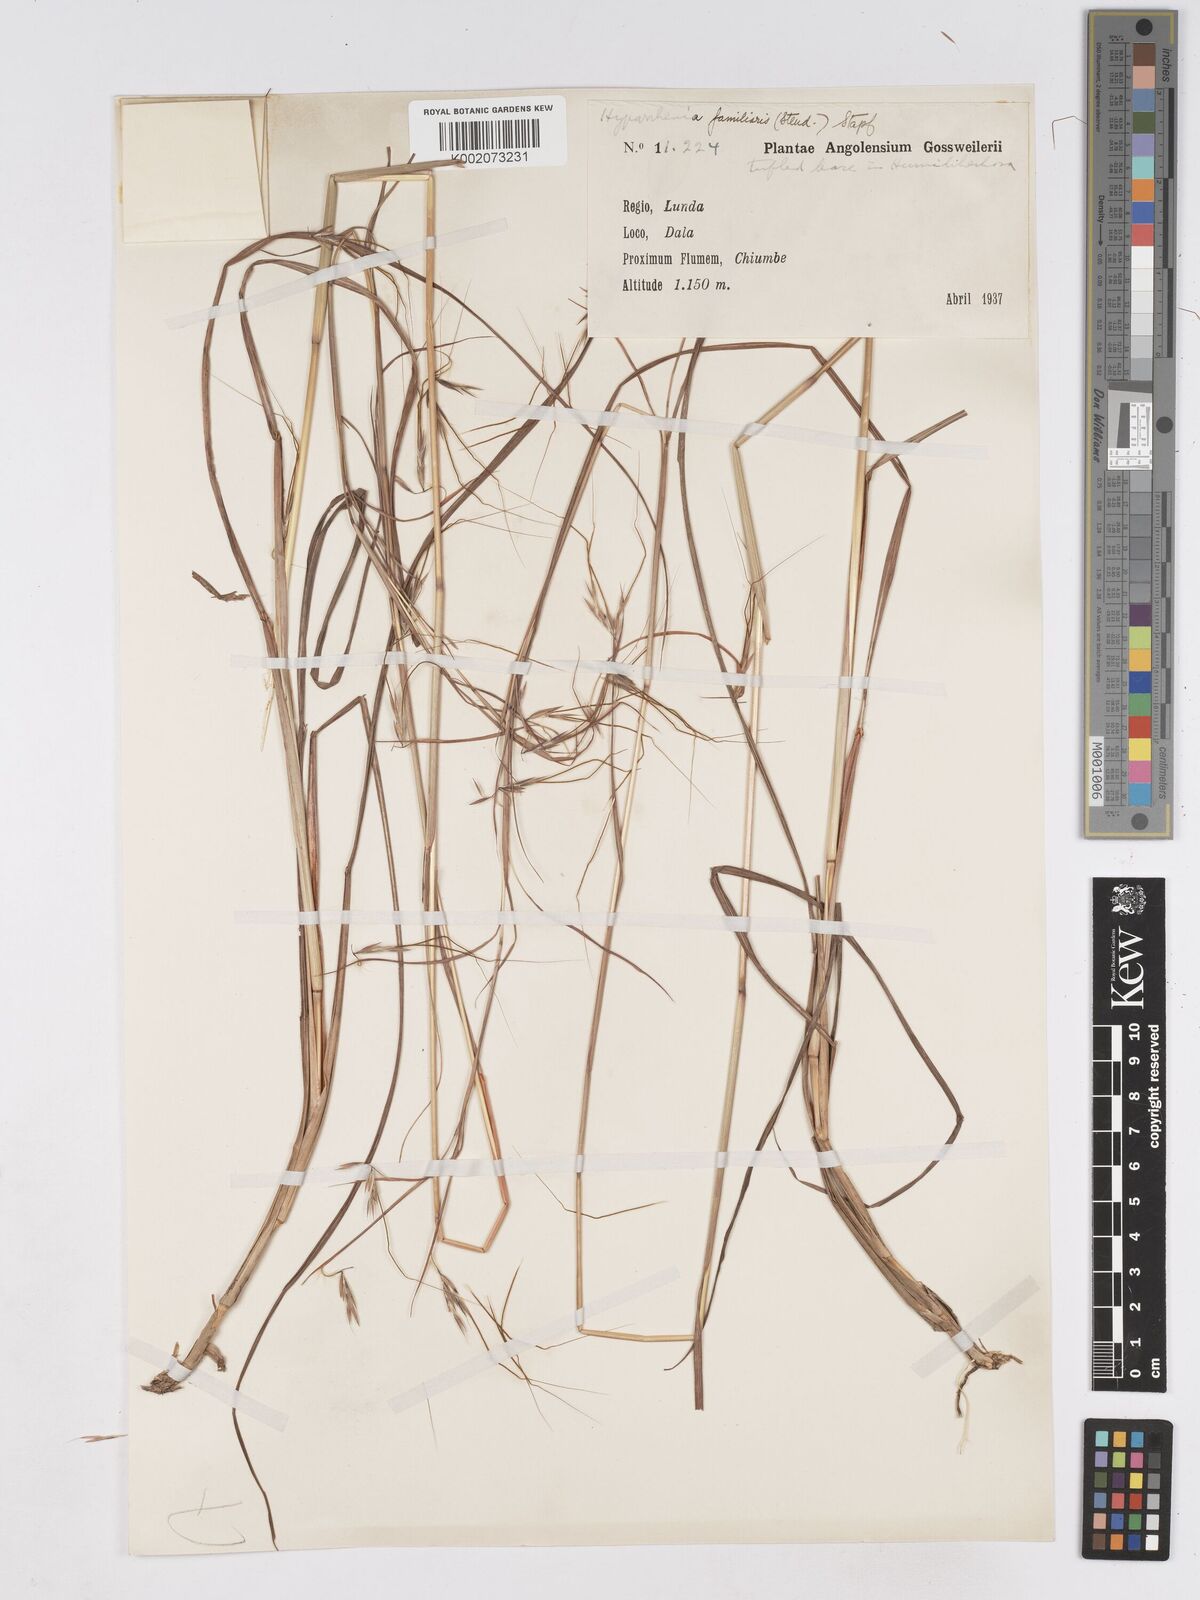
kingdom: Plantae
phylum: Tracheophyta
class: Liliopsida
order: Poales
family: Poaceae
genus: Hyparrhenia
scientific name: Hyparrhenia familiaris
